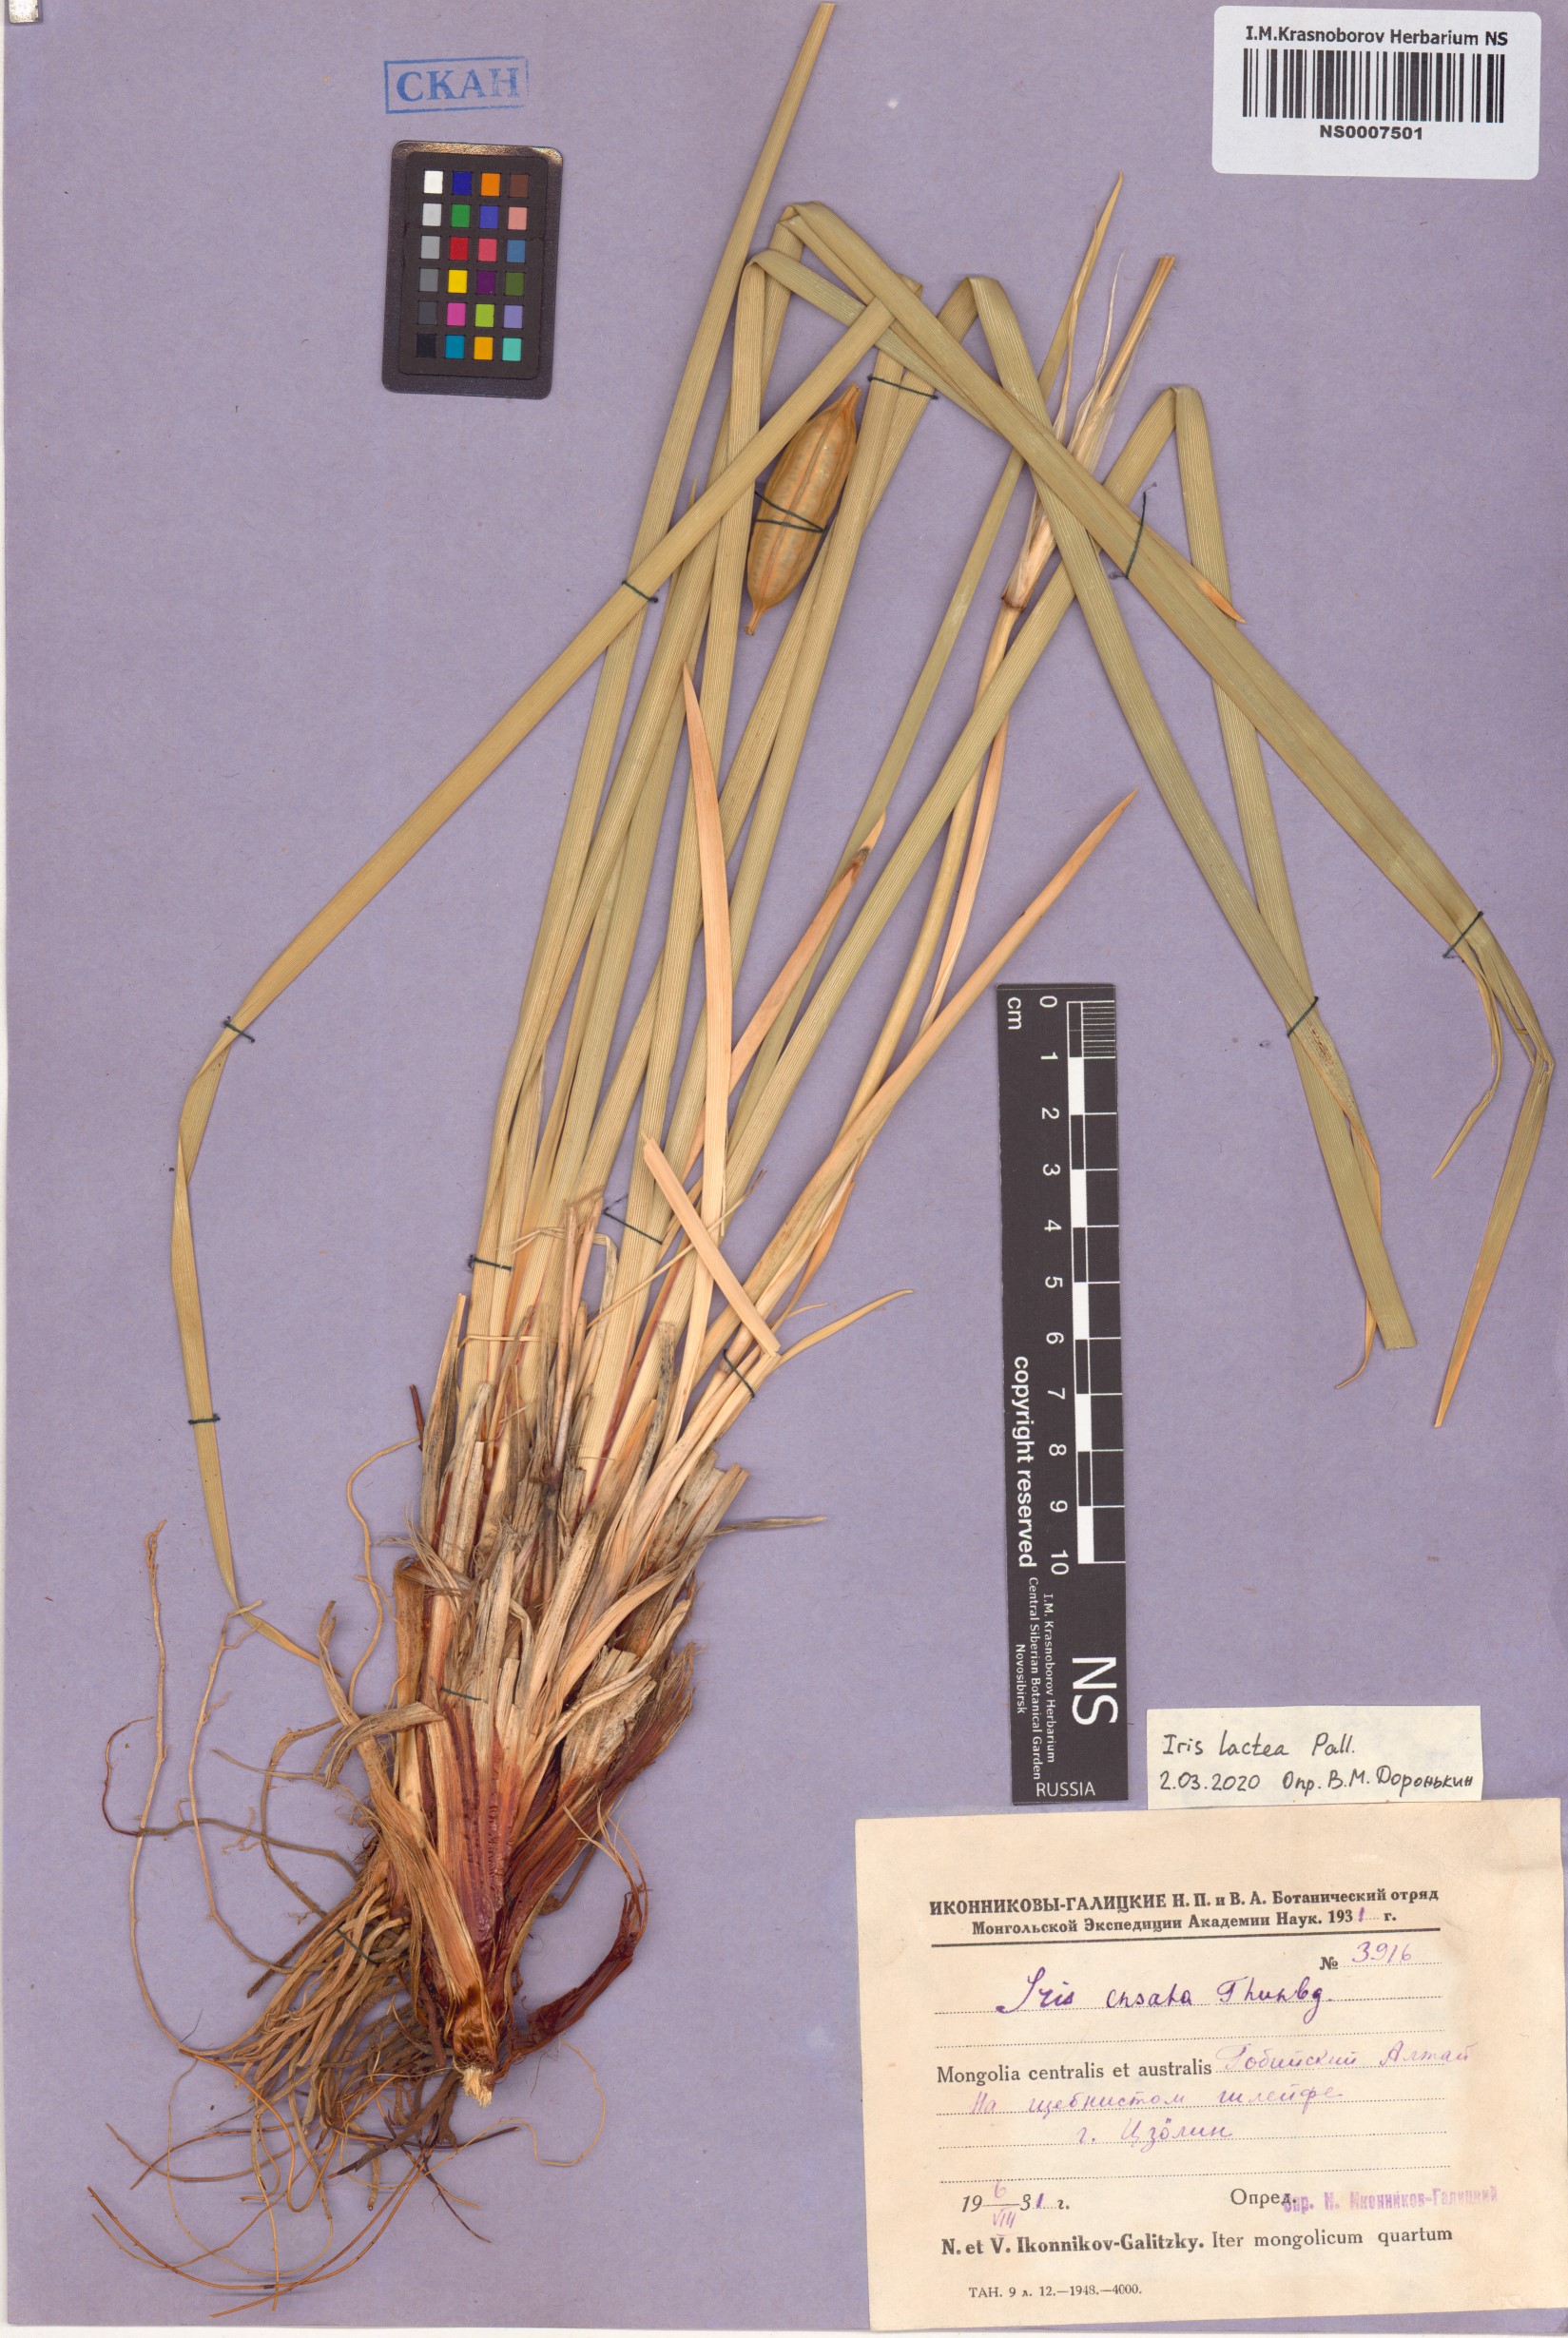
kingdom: Plantae
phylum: Tracheophyta
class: Liliopsida
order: Asparagales
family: Iridaceae
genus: Iris
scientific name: Iris lactea
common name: White-flower chinese iris
